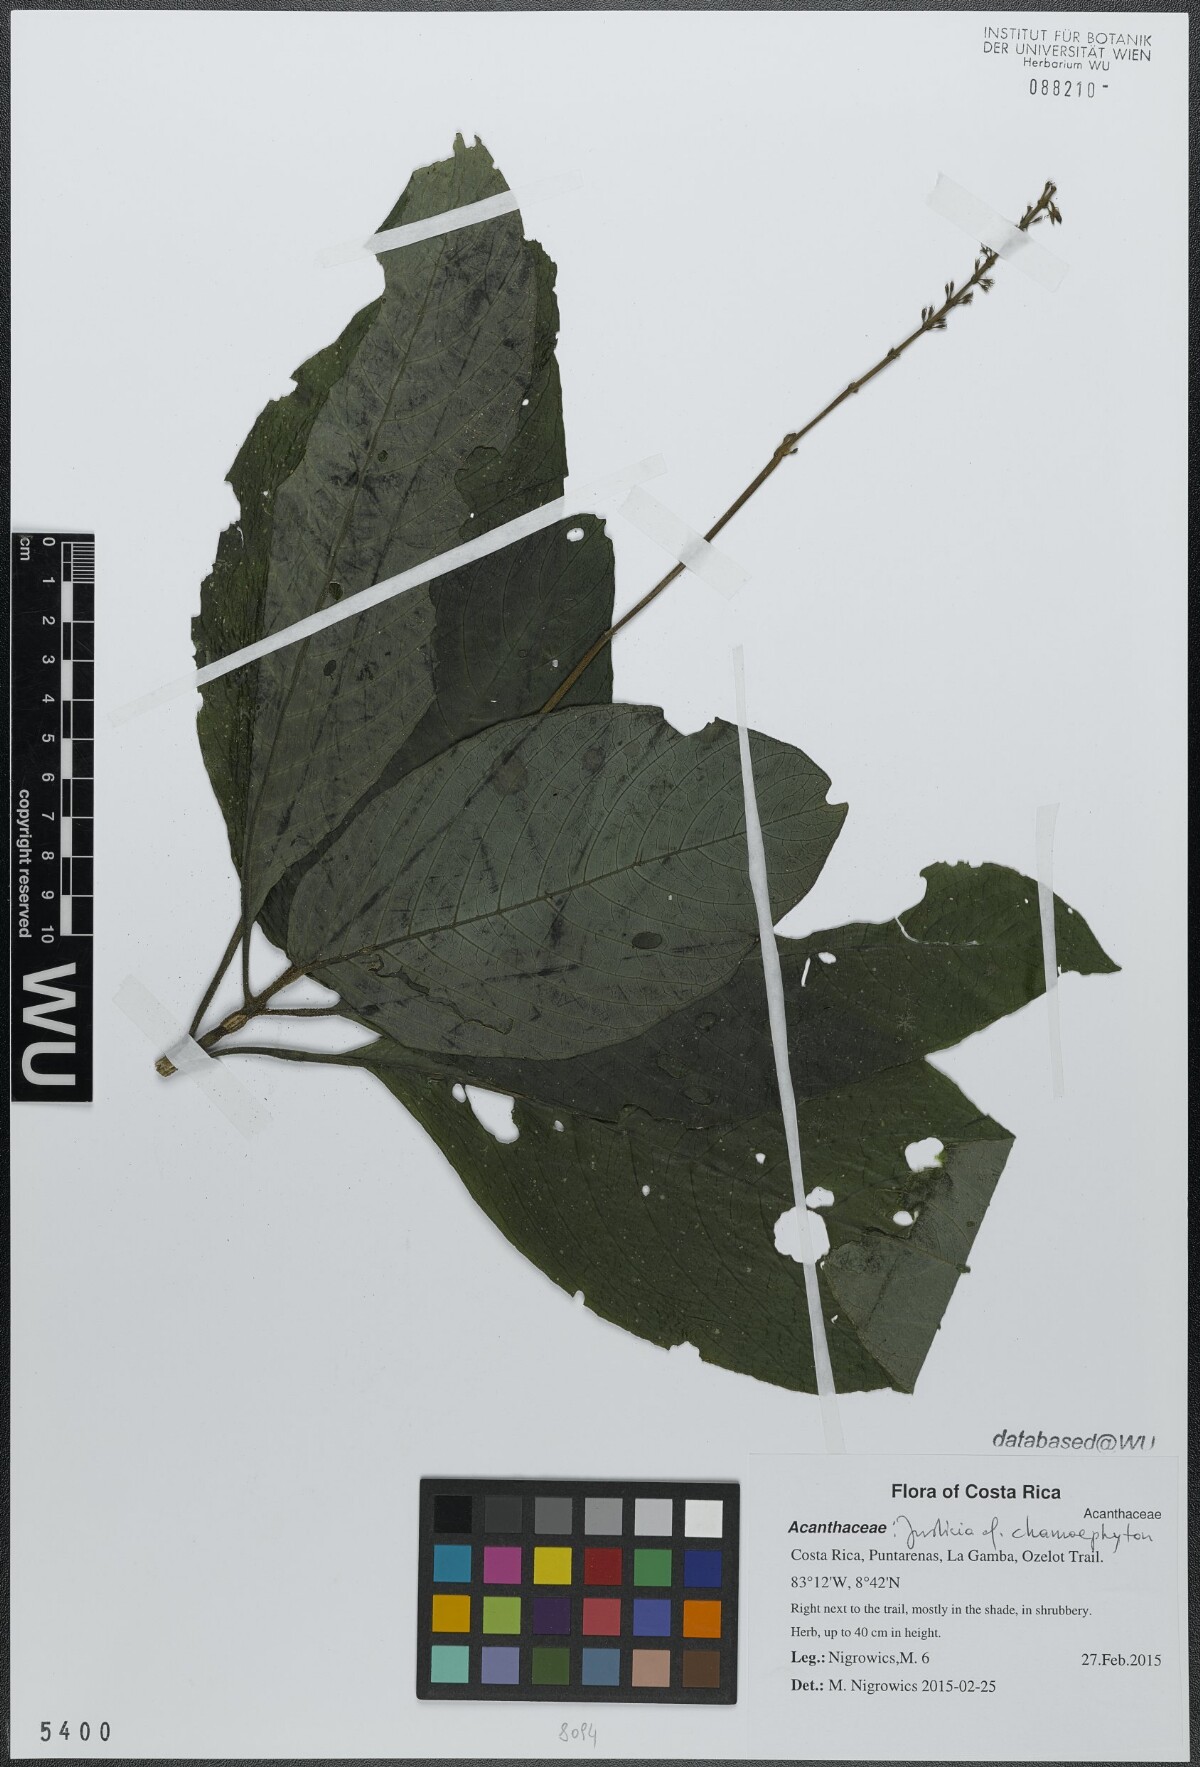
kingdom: Plantae
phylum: Tracheophyta
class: Magnoliopsida
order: Lamiales
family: Acanthaceae
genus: Pseuderanthemum
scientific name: Pseuderanthemum pittieri
